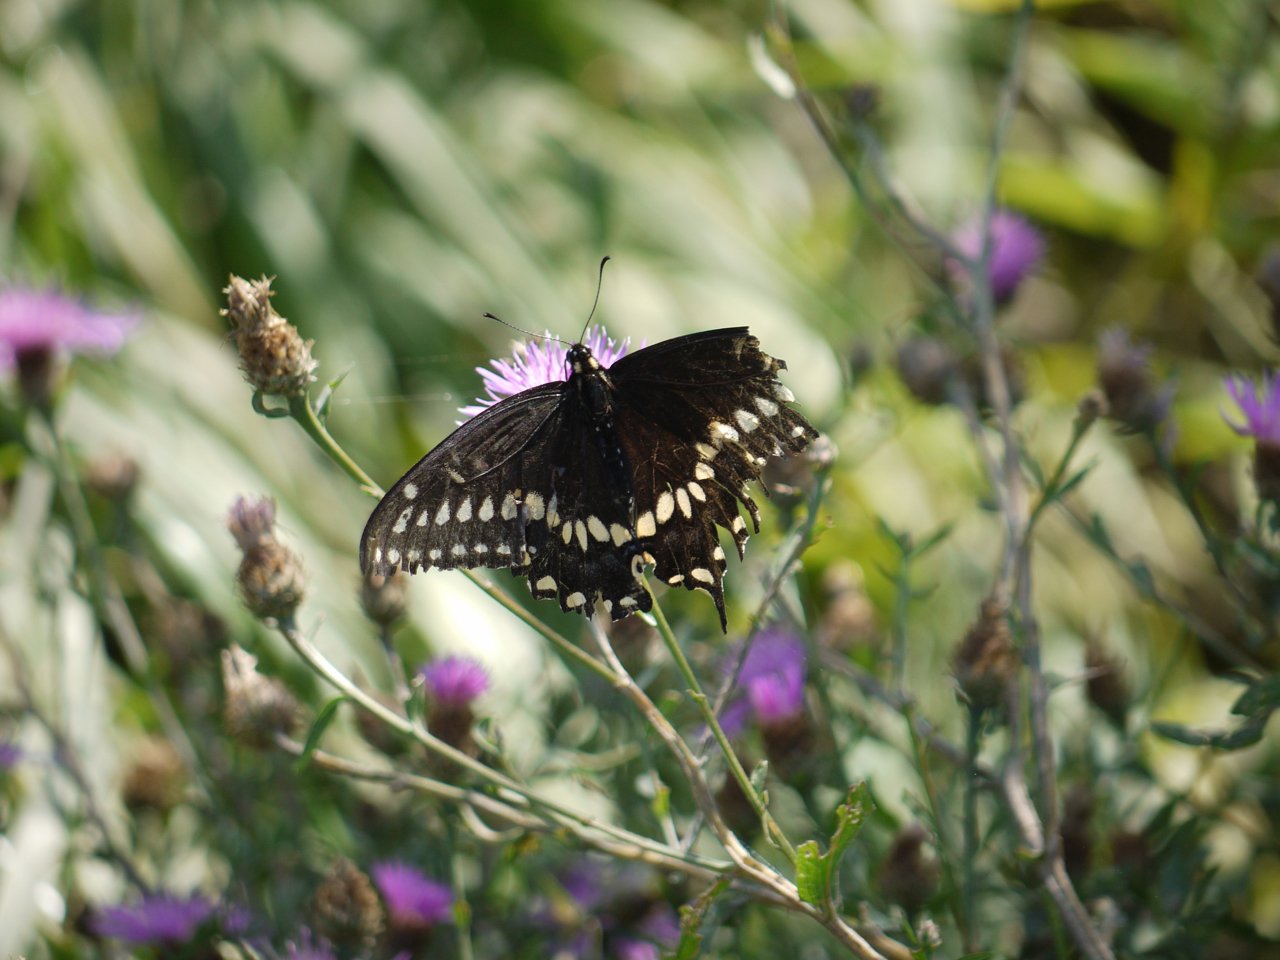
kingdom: Animalia
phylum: Arthropoda
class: Insecta
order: Lepidoptera
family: Papilionidae
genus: Papilio
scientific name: Papilio polyxenes
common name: Black Swallowtail
